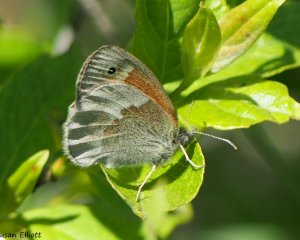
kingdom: Animalia
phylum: Arthropoda
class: Insecta
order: Lepidoptera
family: Nymphalidae
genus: Coenonympha
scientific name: Coenonympha tullia
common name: Large Heath
